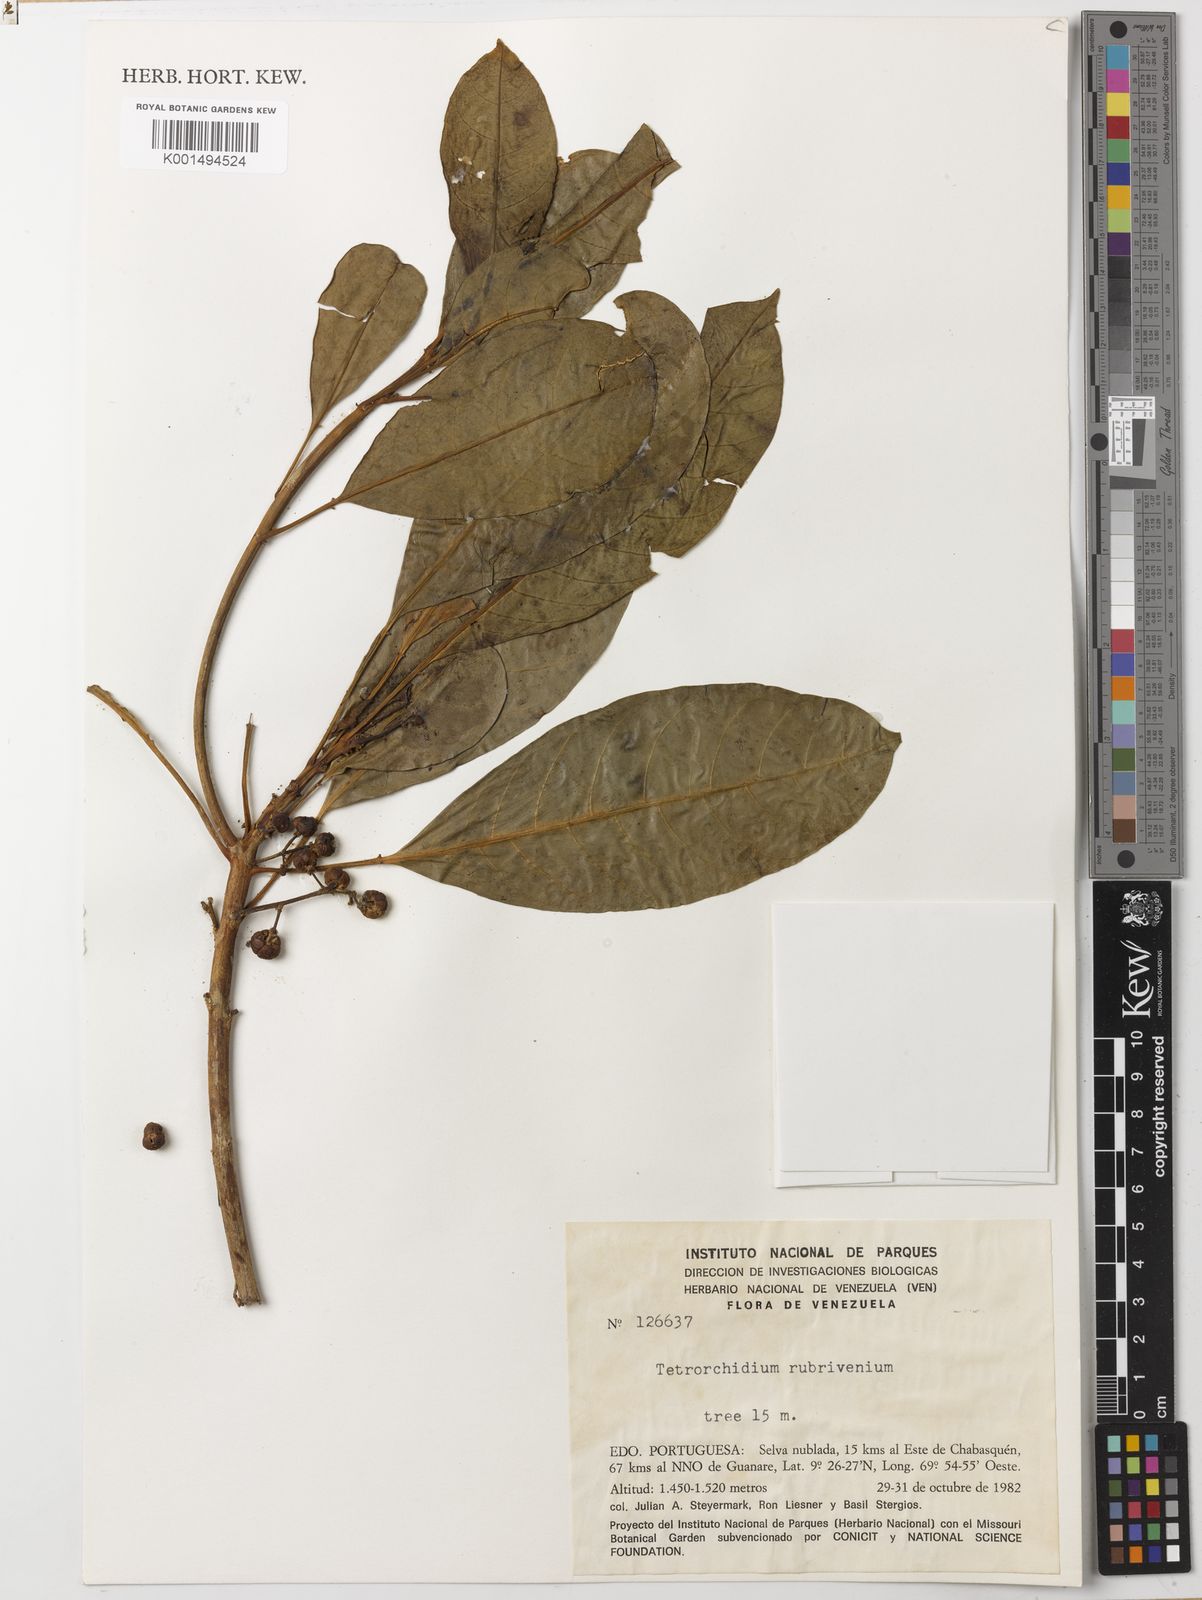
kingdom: Plantae
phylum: Tracheophyta
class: Magnoliopsida
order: Malpighiales
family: Euphorbiaceae
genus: Tetrorchidium
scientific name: Tetrorchidium rubrivenium
